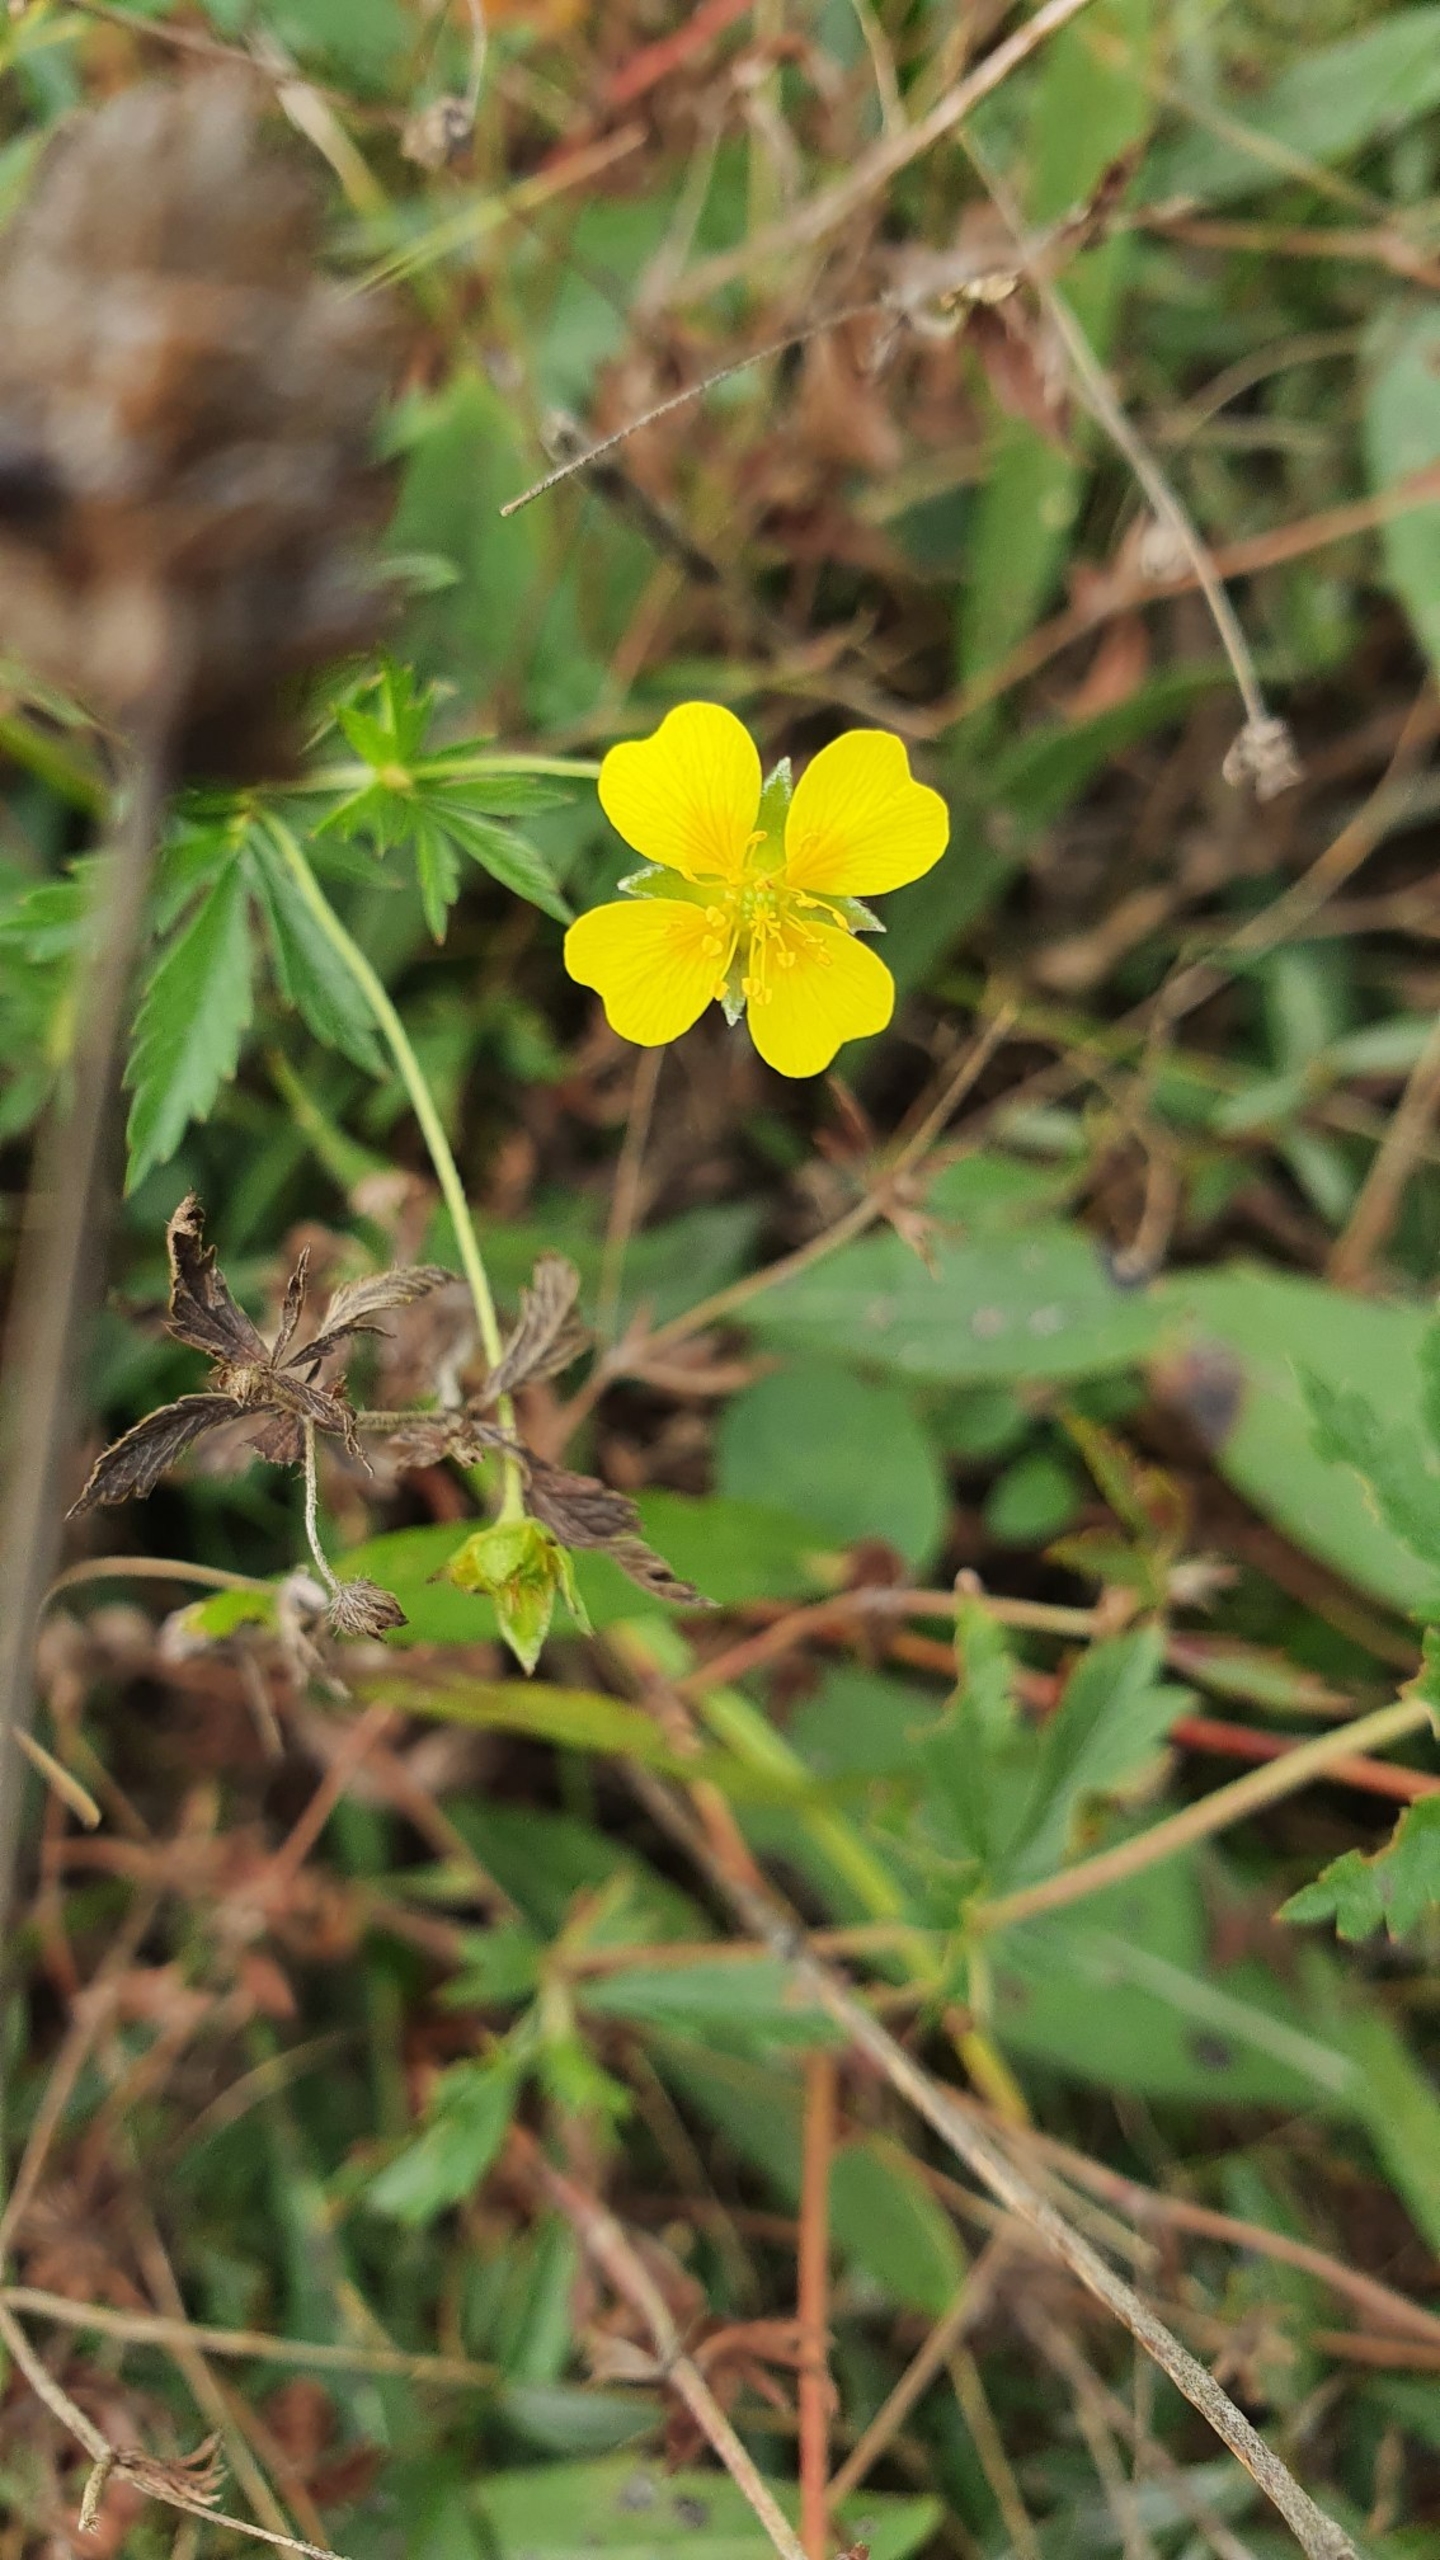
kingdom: Plantae
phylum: Tracheophyta
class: Magnoliopsida
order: Rosales
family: Rosaceae
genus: Potentilla
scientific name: Potentilla erecta
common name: Tormentil
